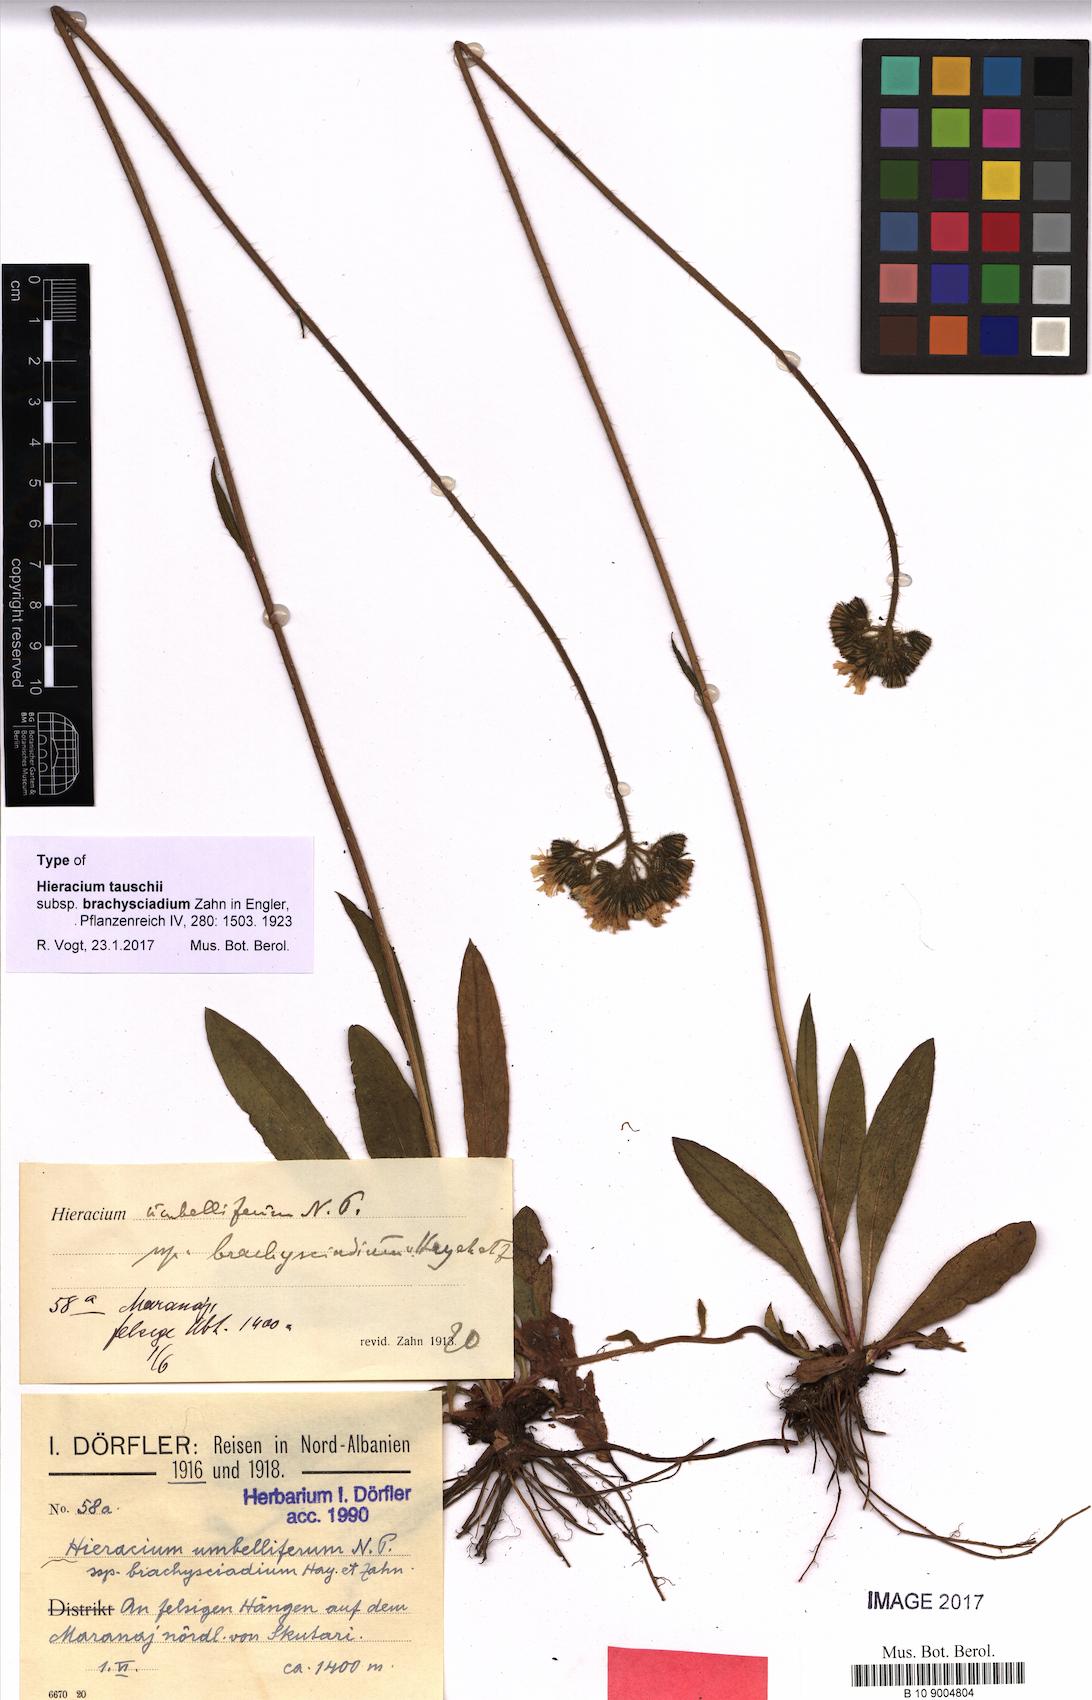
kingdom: Plantae
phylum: Tracheophyta
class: Magnoliopsida
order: Asterales
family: Asteraceae
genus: Pilosella
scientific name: Pilosella densiflora
